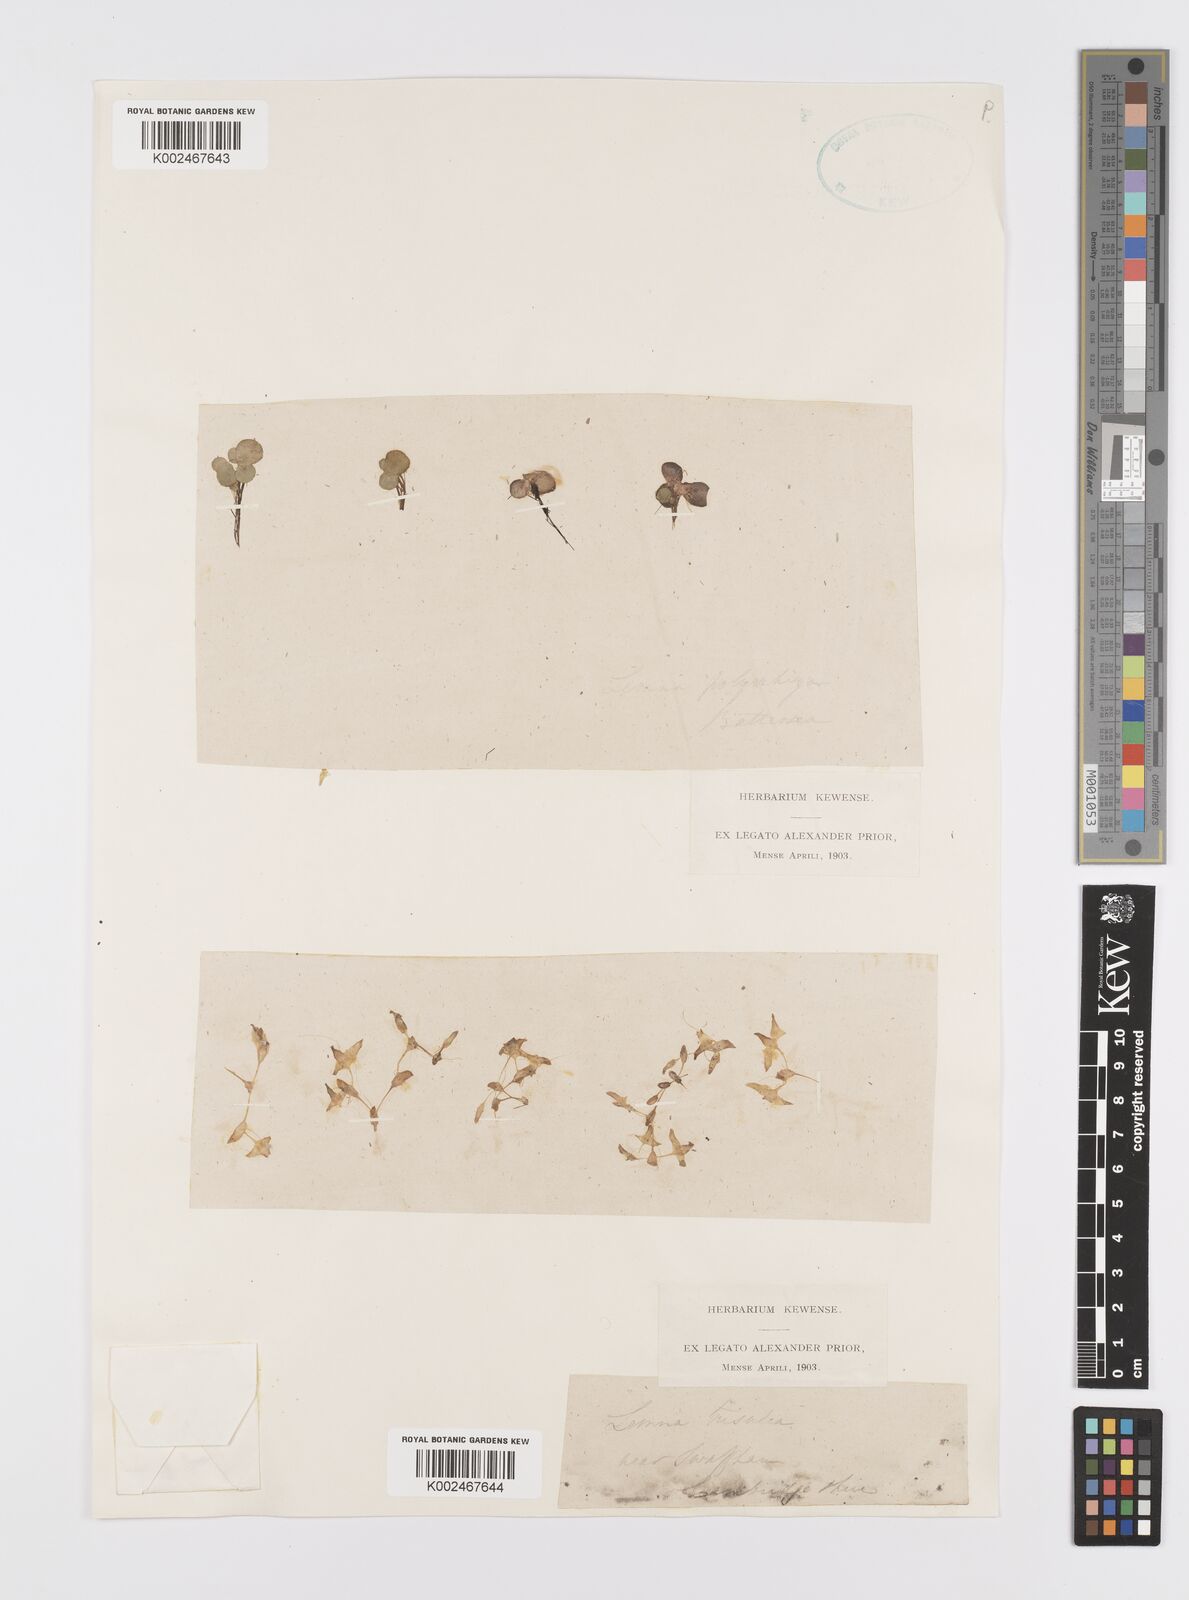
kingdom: Plantae
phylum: Tracheophyta
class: Liliopsida
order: Alismatales
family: Araceae
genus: Lemna
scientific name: Lemna trisulca
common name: Ivy-leaved duckweed
